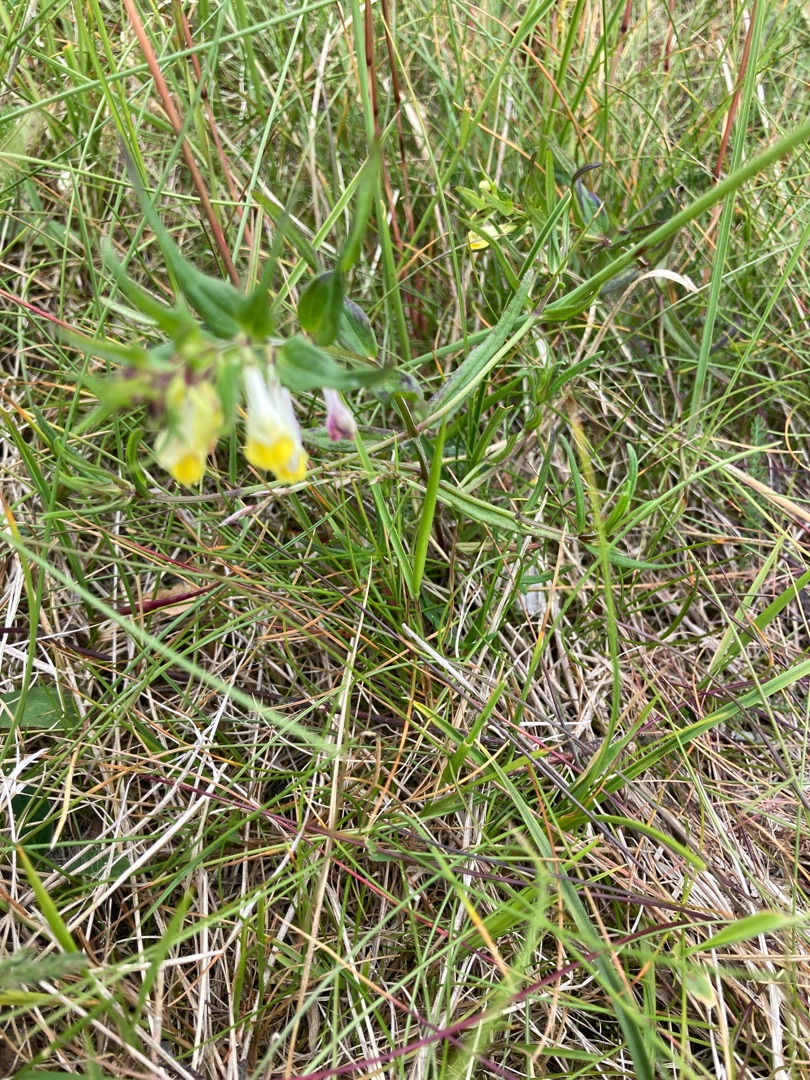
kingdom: Plantae
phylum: Tracheophyta
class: Magnoliopsida
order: Lamiales
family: Orobanchaceae
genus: Melampyrum
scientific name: Melampyrum pratense
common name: Almindelig kohvede
